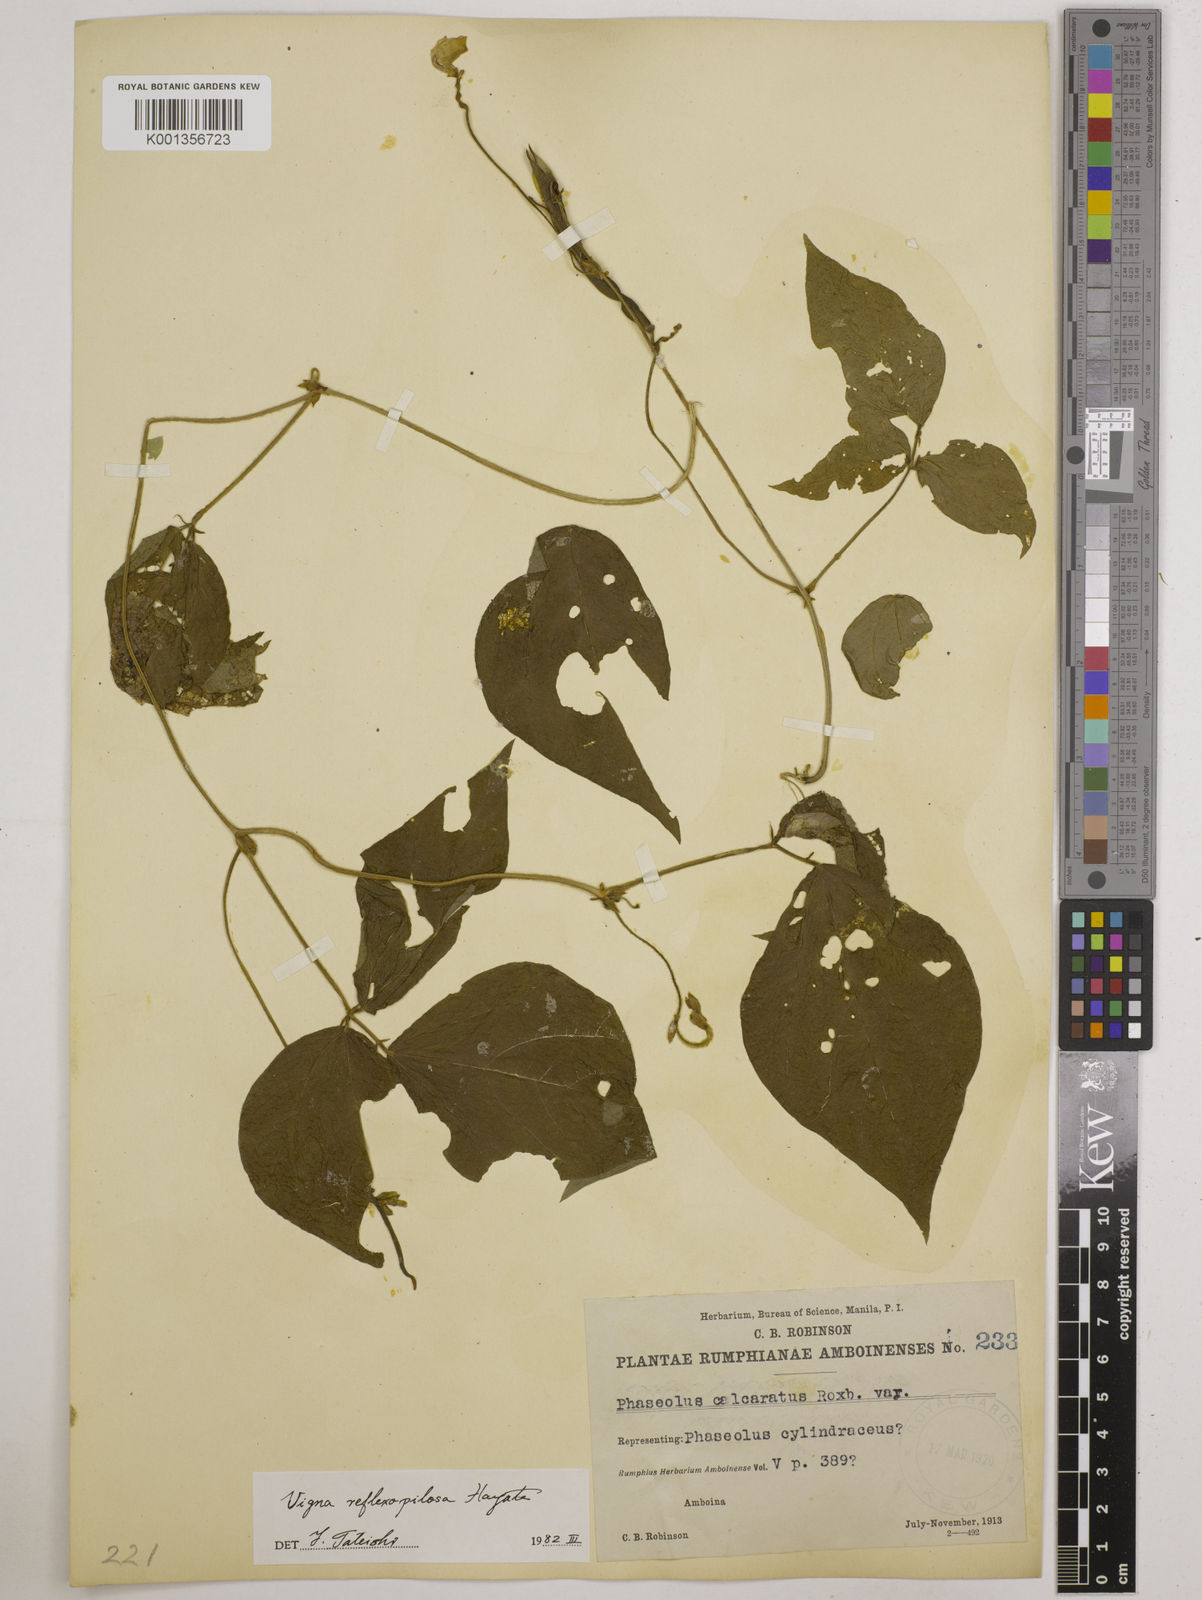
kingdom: Plantae
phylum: Tracheophyta
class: Magnoliopsida
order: Fabales
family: Fabaceae
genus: Vigna
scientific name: Vigna reflexopilosa
